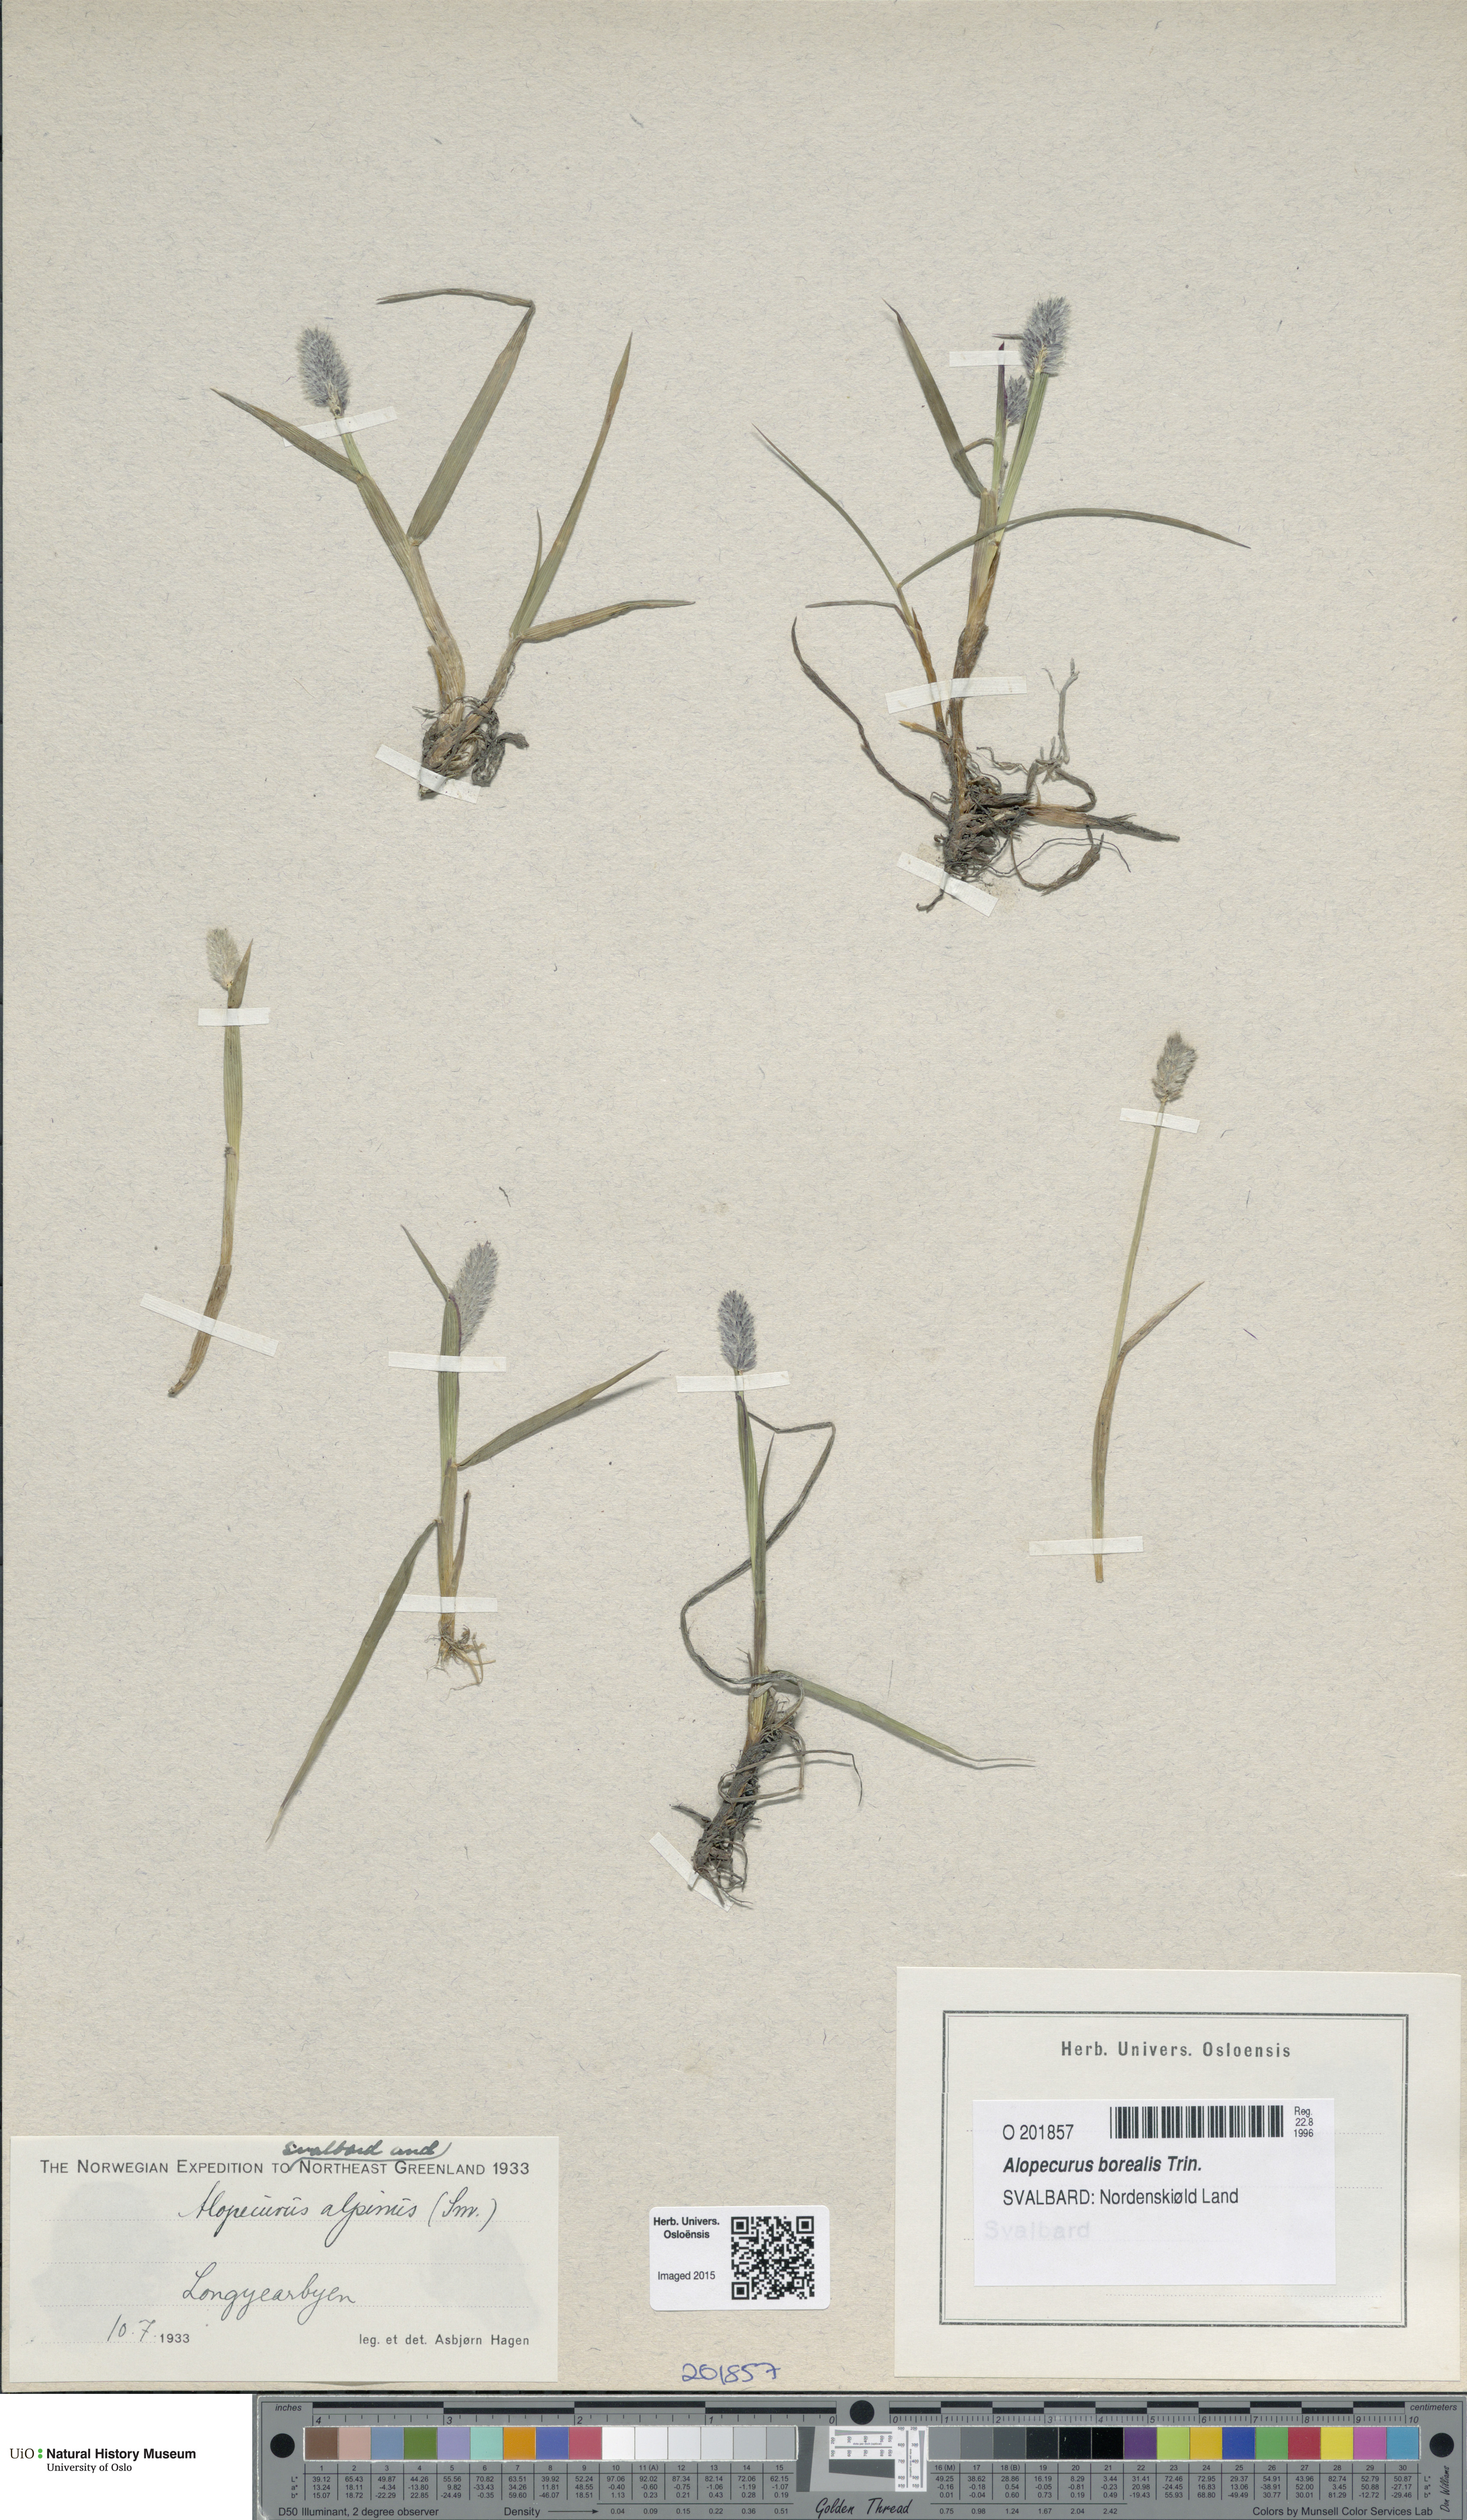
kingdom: Plantae
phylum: Tracheophyta
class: Liliopsida
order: Poales
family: Poaceae
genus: Alopecurus
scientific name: Alopecurus magellanicus
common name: Alpine foxtail
